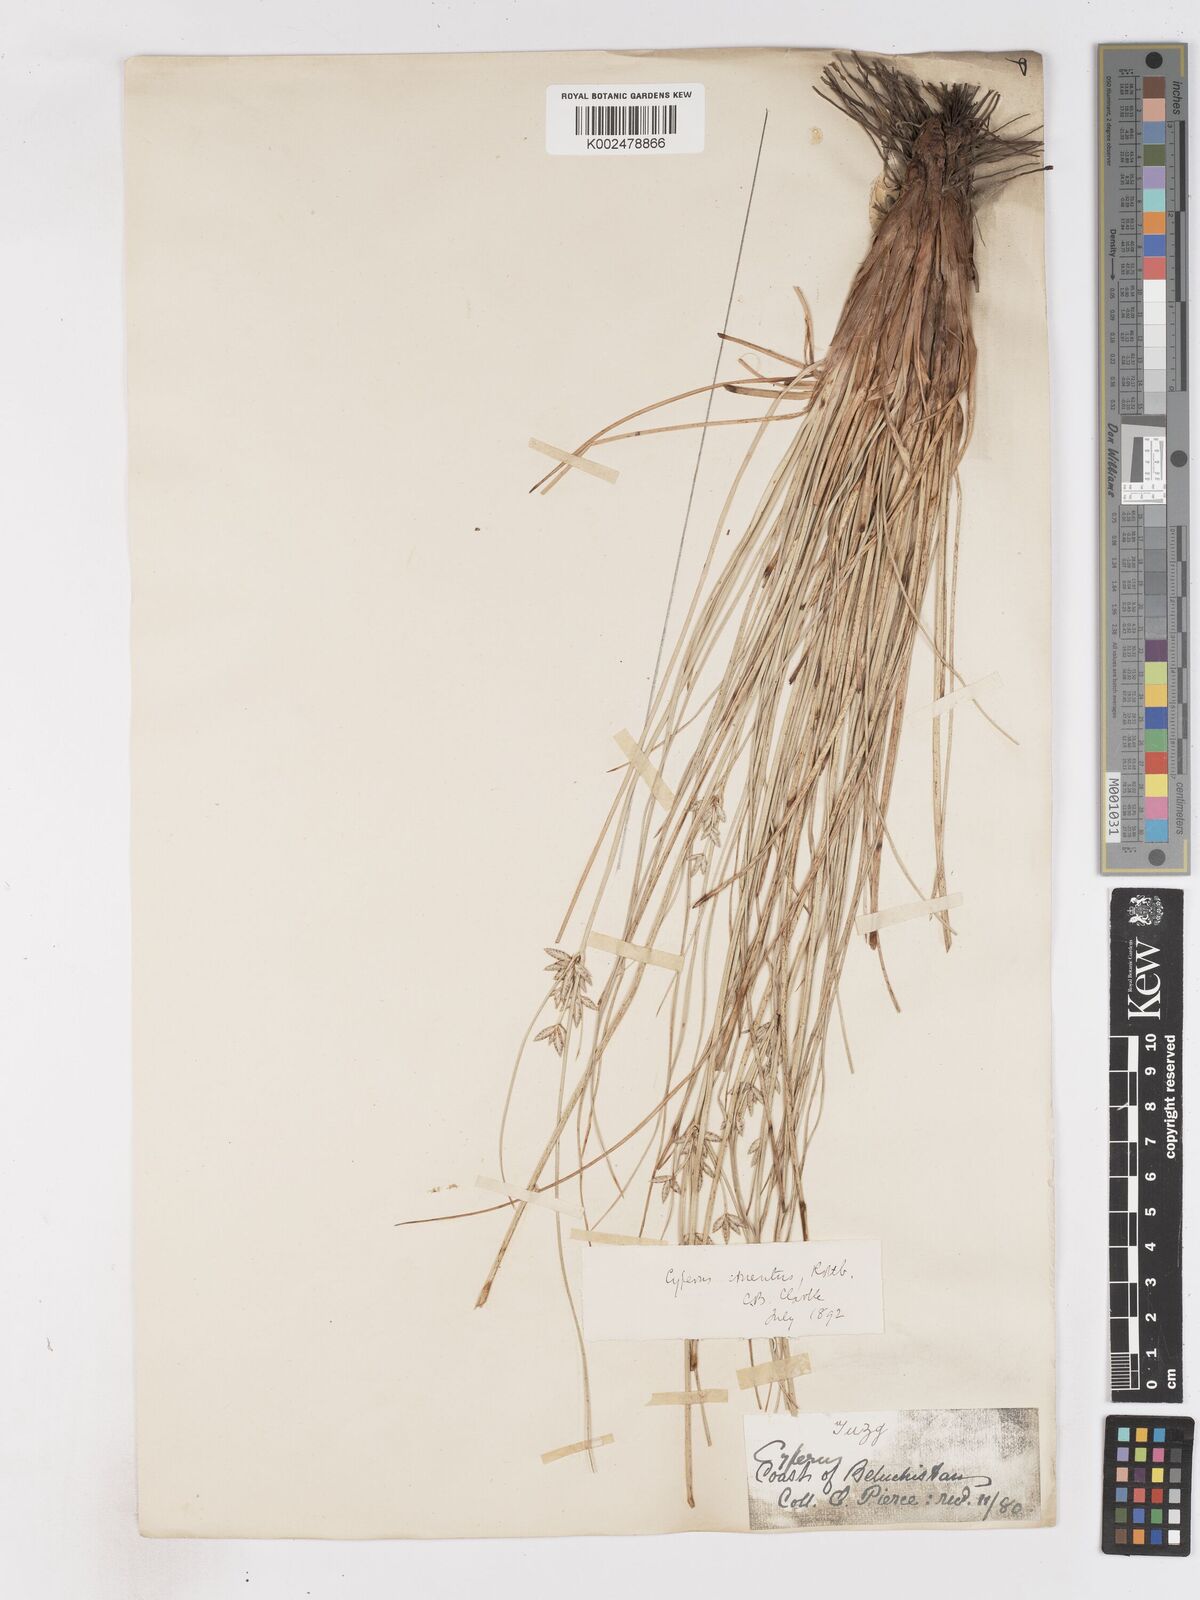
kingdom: Plantae
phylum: Tracheophyta
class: Liliopsida
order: Poales
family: Cyperaceae
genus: Cyperus
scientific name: Cyperus aucheri
